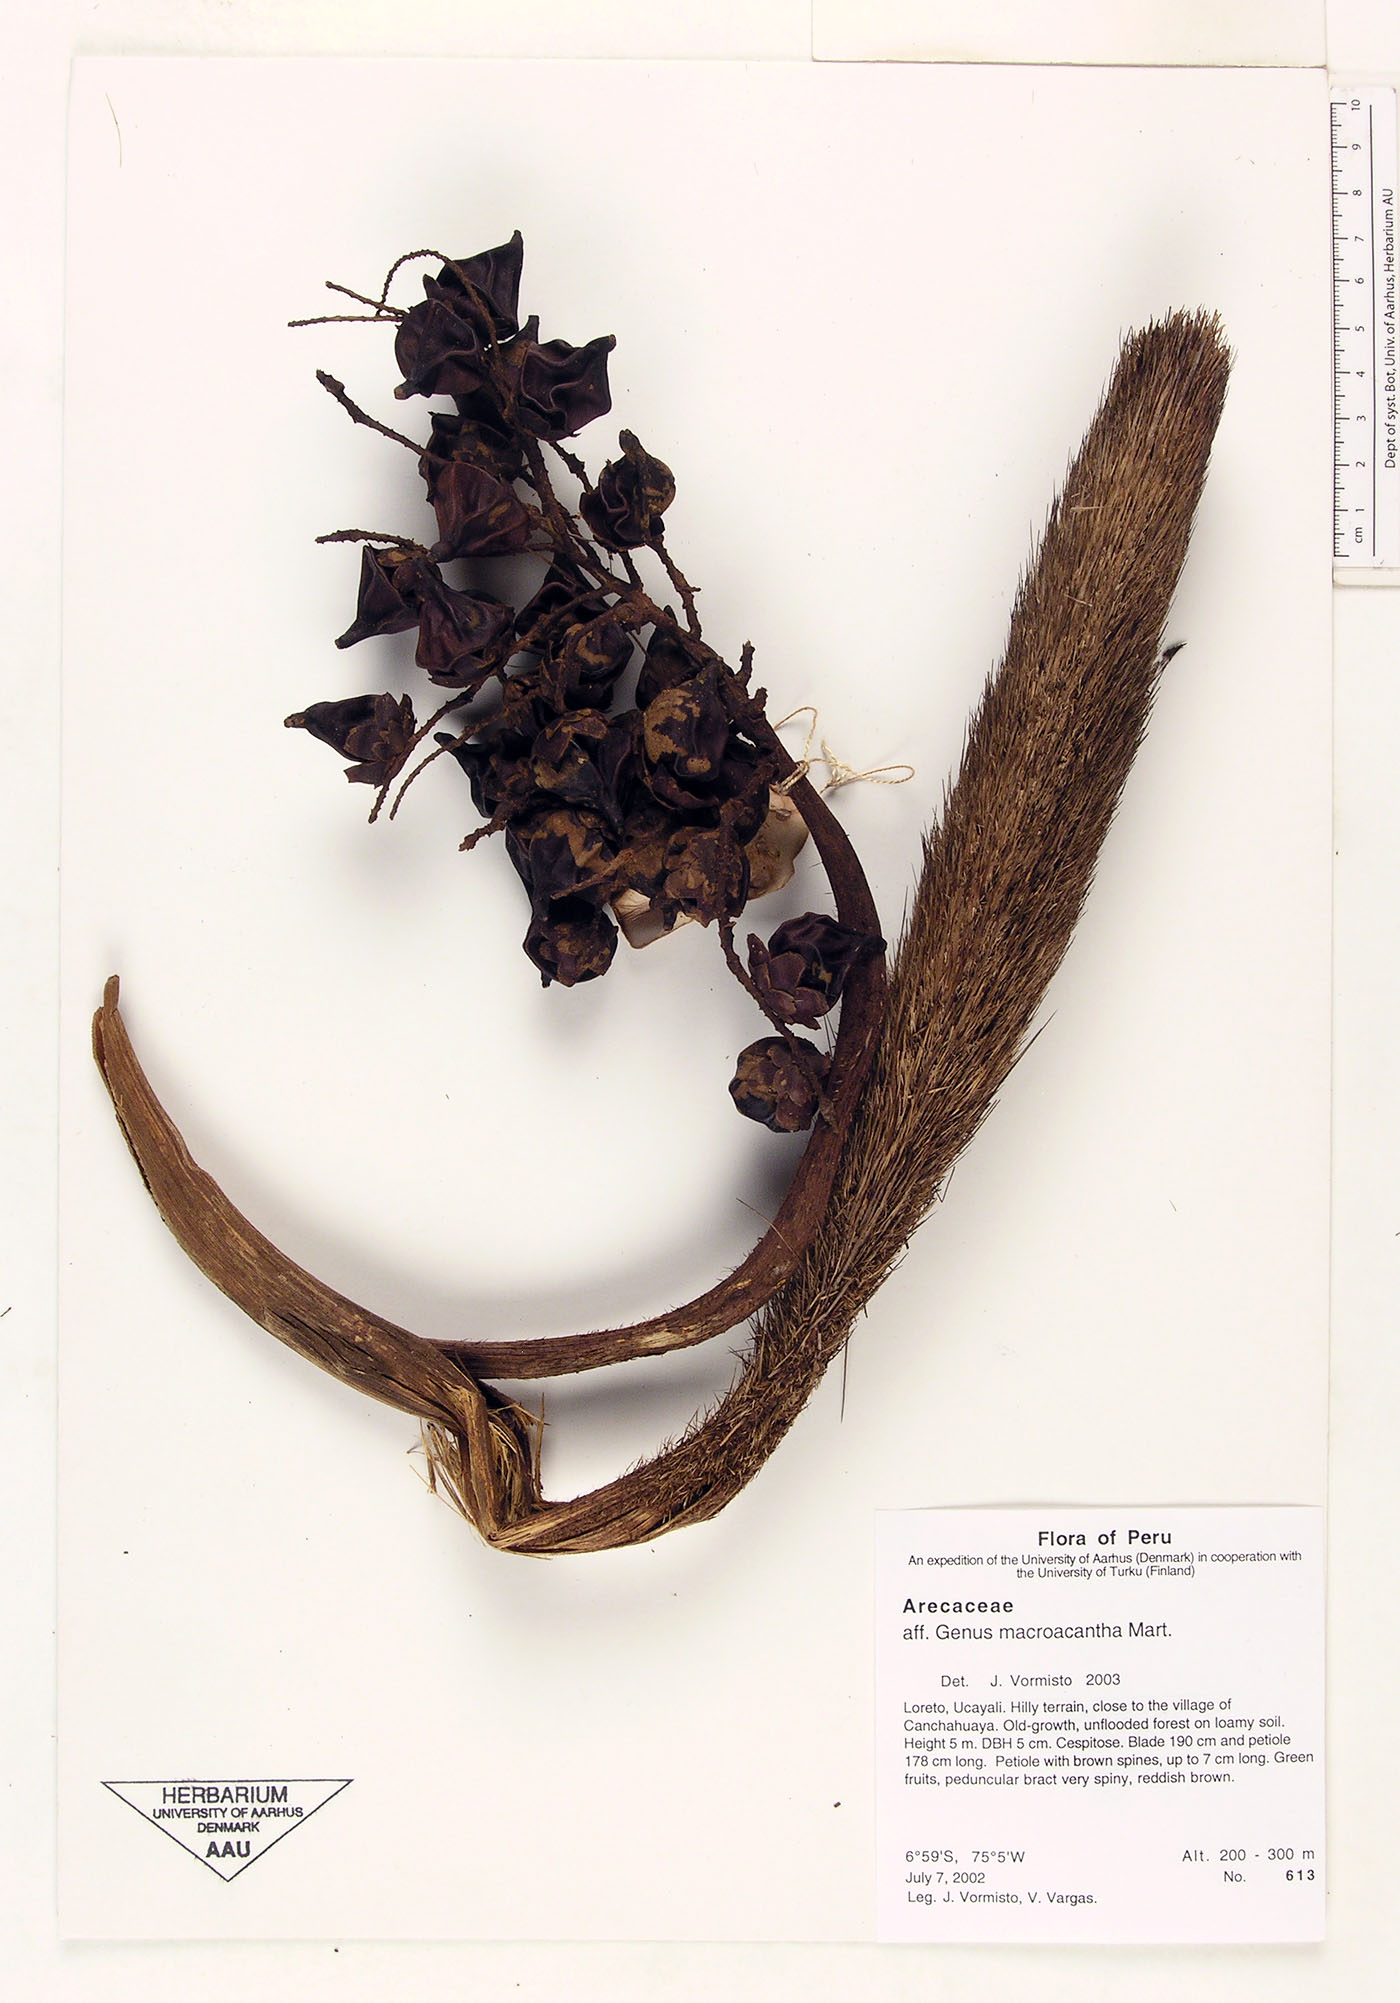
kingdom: Plantae
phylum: Tracheophyta
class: Liliopsida
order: Arecales
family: Arecaceae
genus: Bactris
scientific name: Bactris macroacantha
